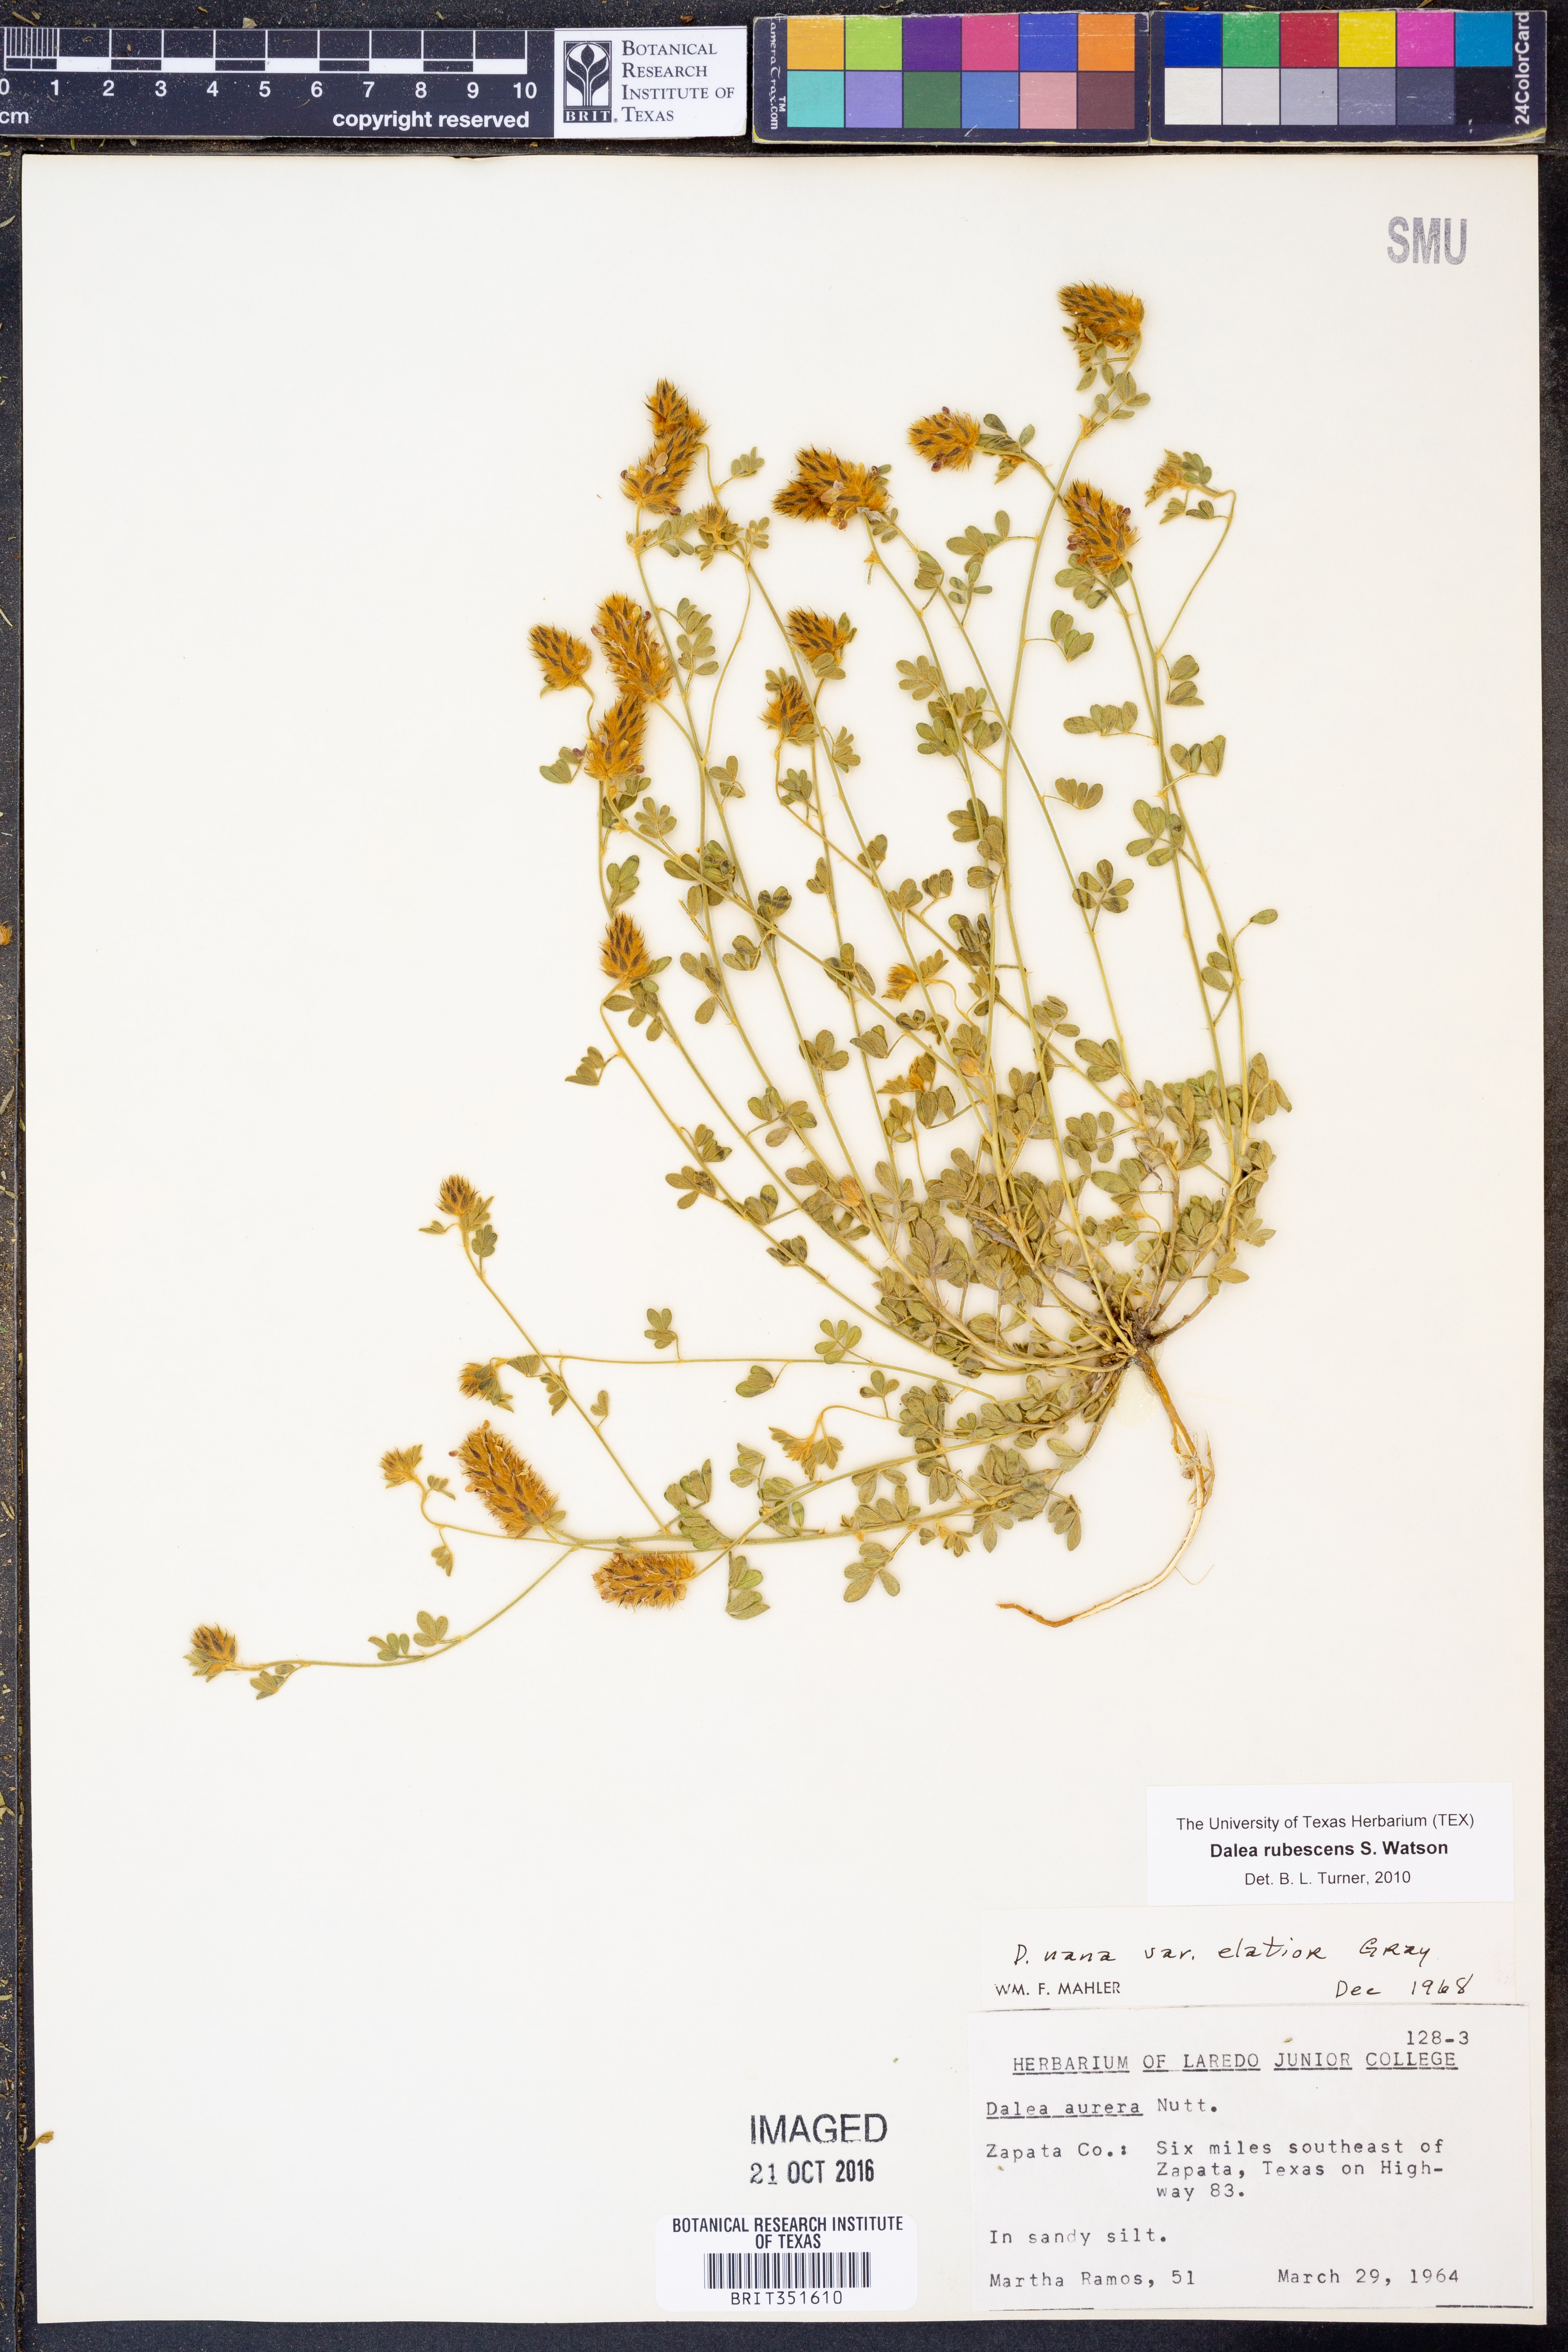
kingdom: Plantae
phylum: Tracheophyta
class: Magnoliopsida
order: Fabales
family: Fabaceae
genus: Dalea
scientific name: Dalea rubescens
